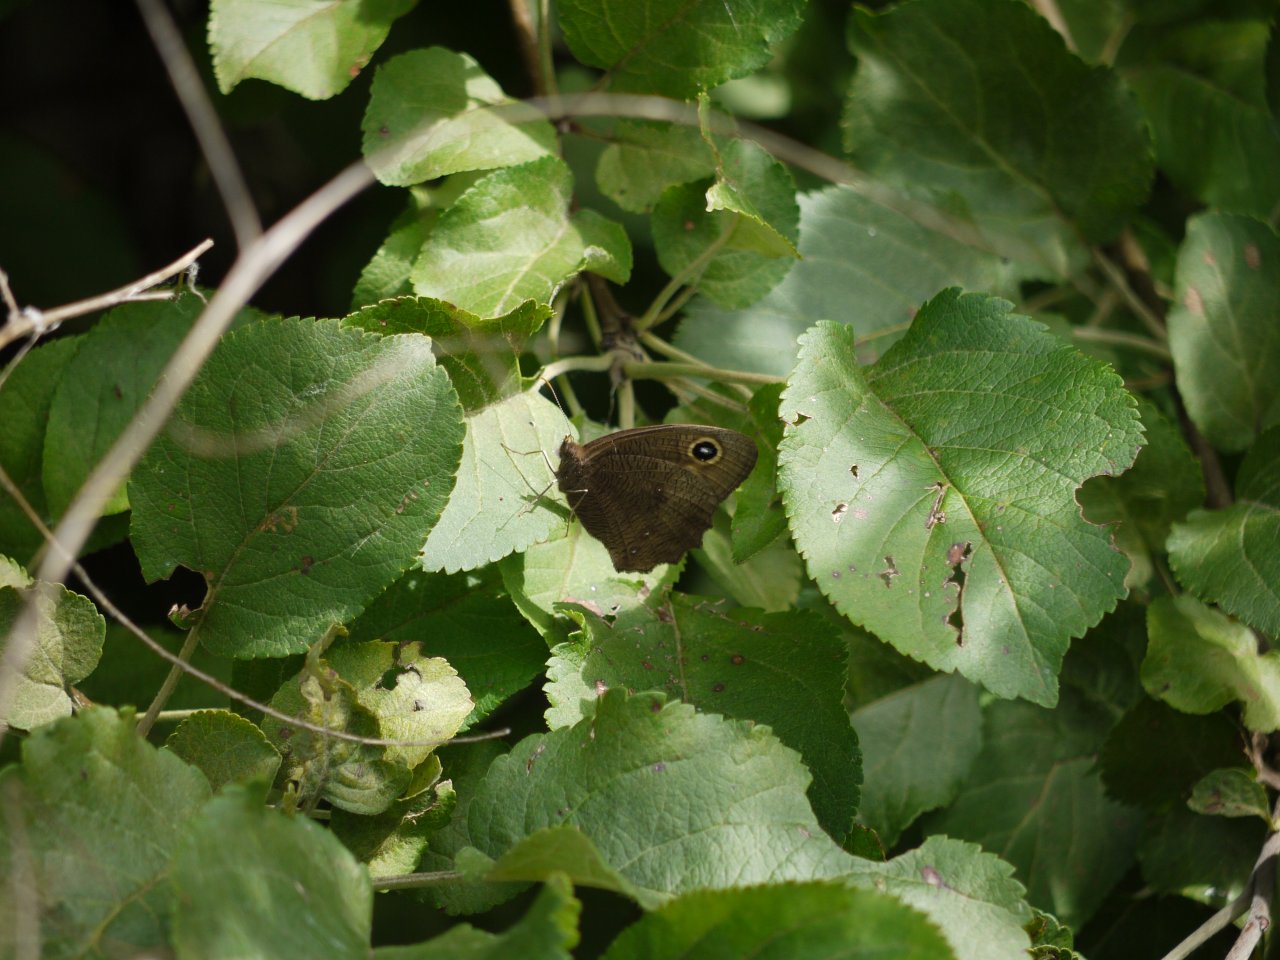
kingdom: Animalia
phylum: Arthropoda
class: Insecta
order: Lepidoptera
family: Nymphalidae
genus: Cercyonis
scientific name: Cercyonis pegala
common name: Common Wood-Nymph
